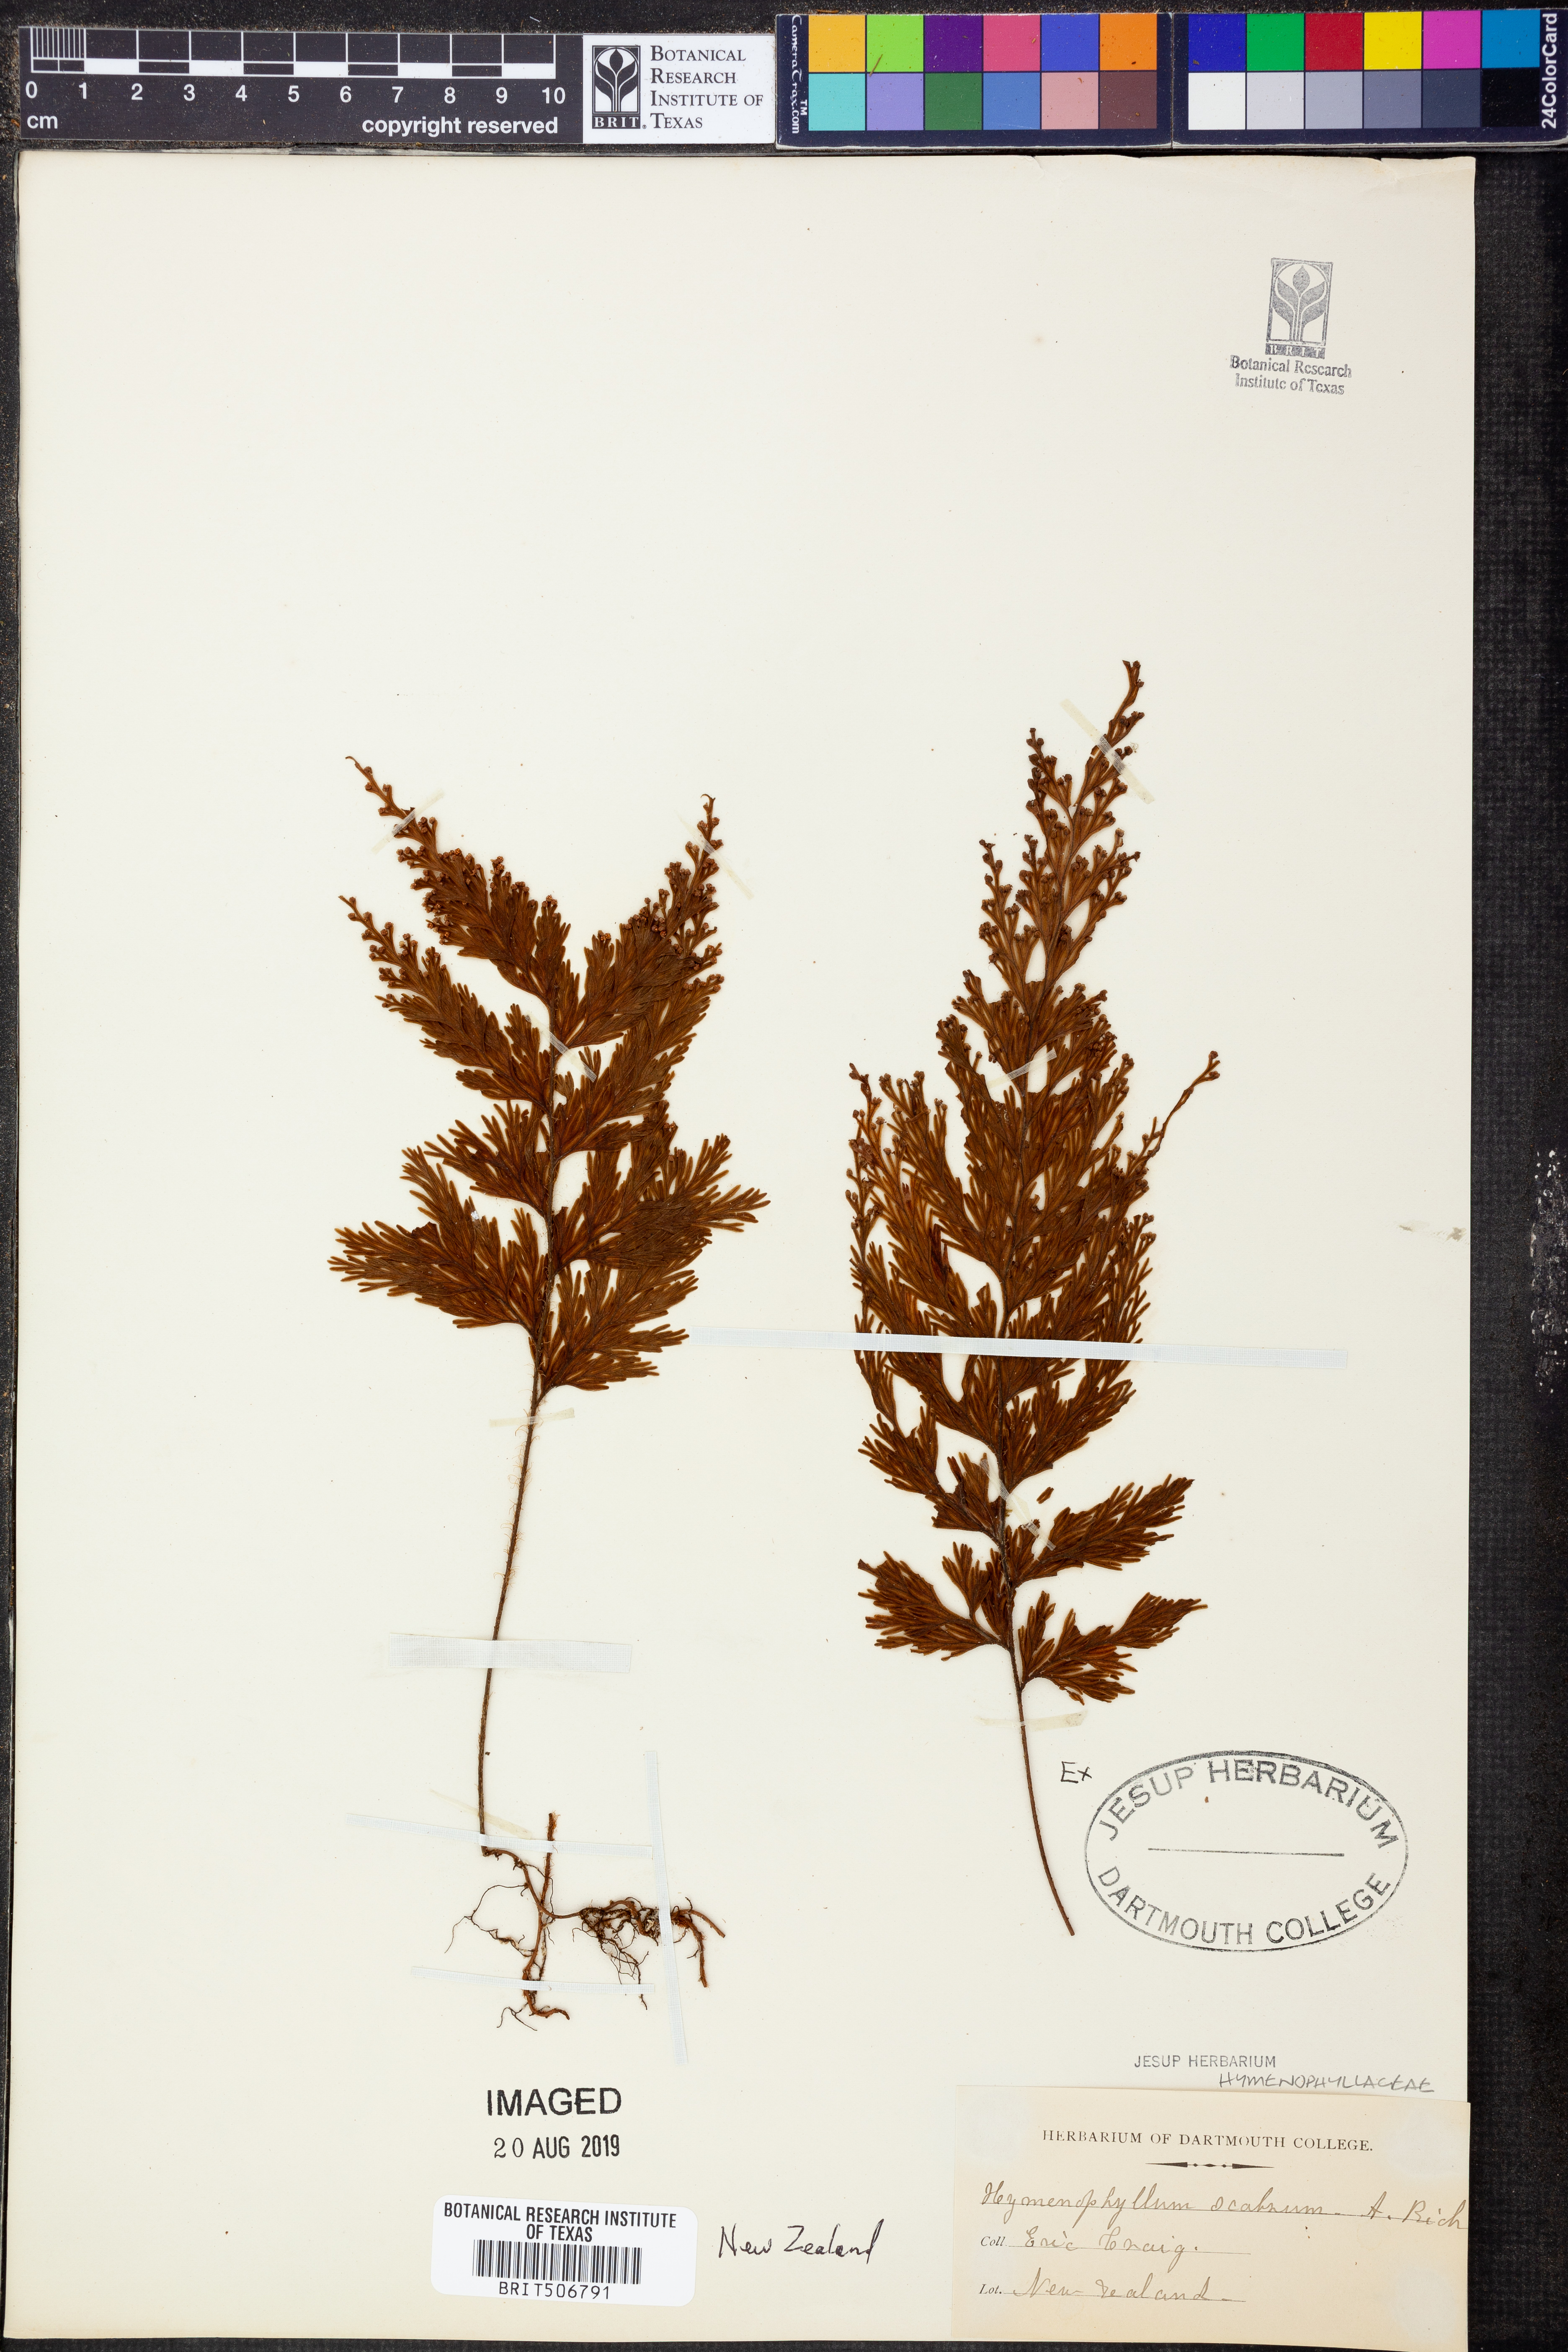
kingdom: Plantae
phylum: Tracheophyta
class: Polypodiopsida
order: Hymenophyllales
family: Hymenophyllaceae
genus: Hymenophyllum
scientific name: Hymenophyllum scabrum
